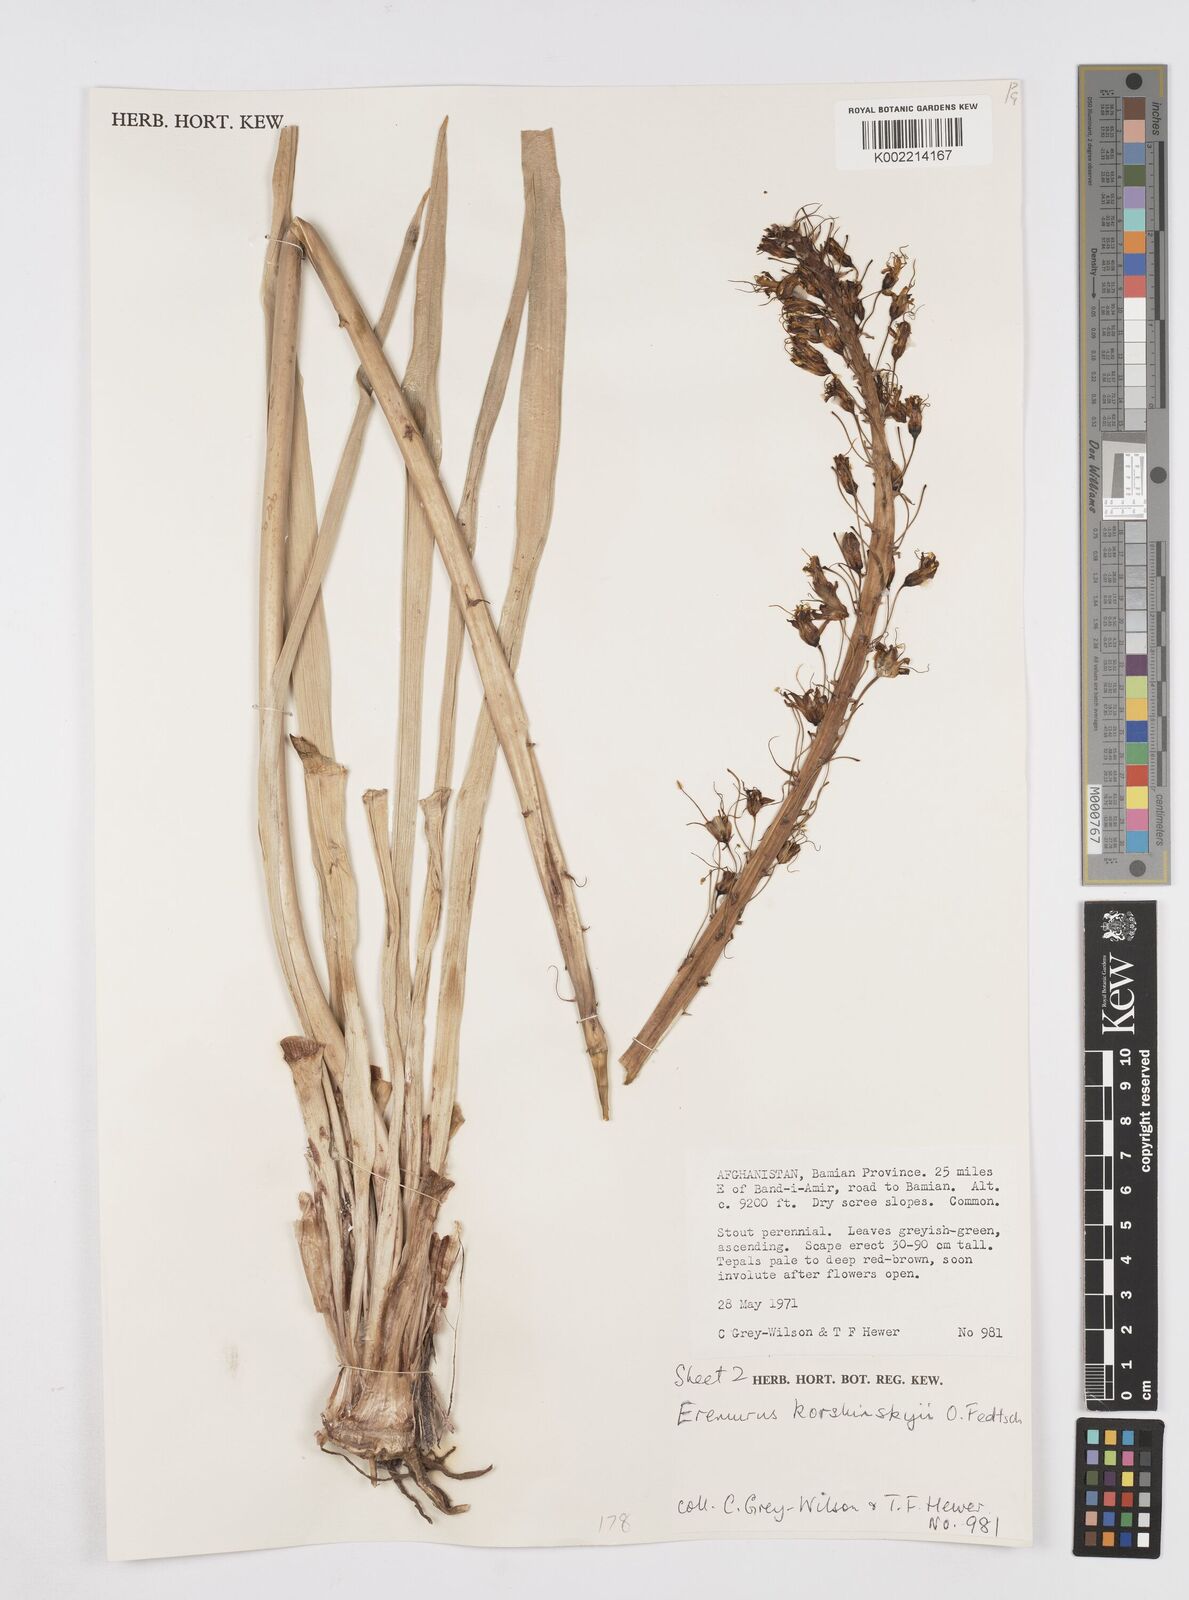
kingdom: Plantae
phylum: Tracheophyta
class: Liliopsida
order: Asparagales
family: Asphodelaceae
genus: Eremurus
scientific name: Eremurus korshinskyi
